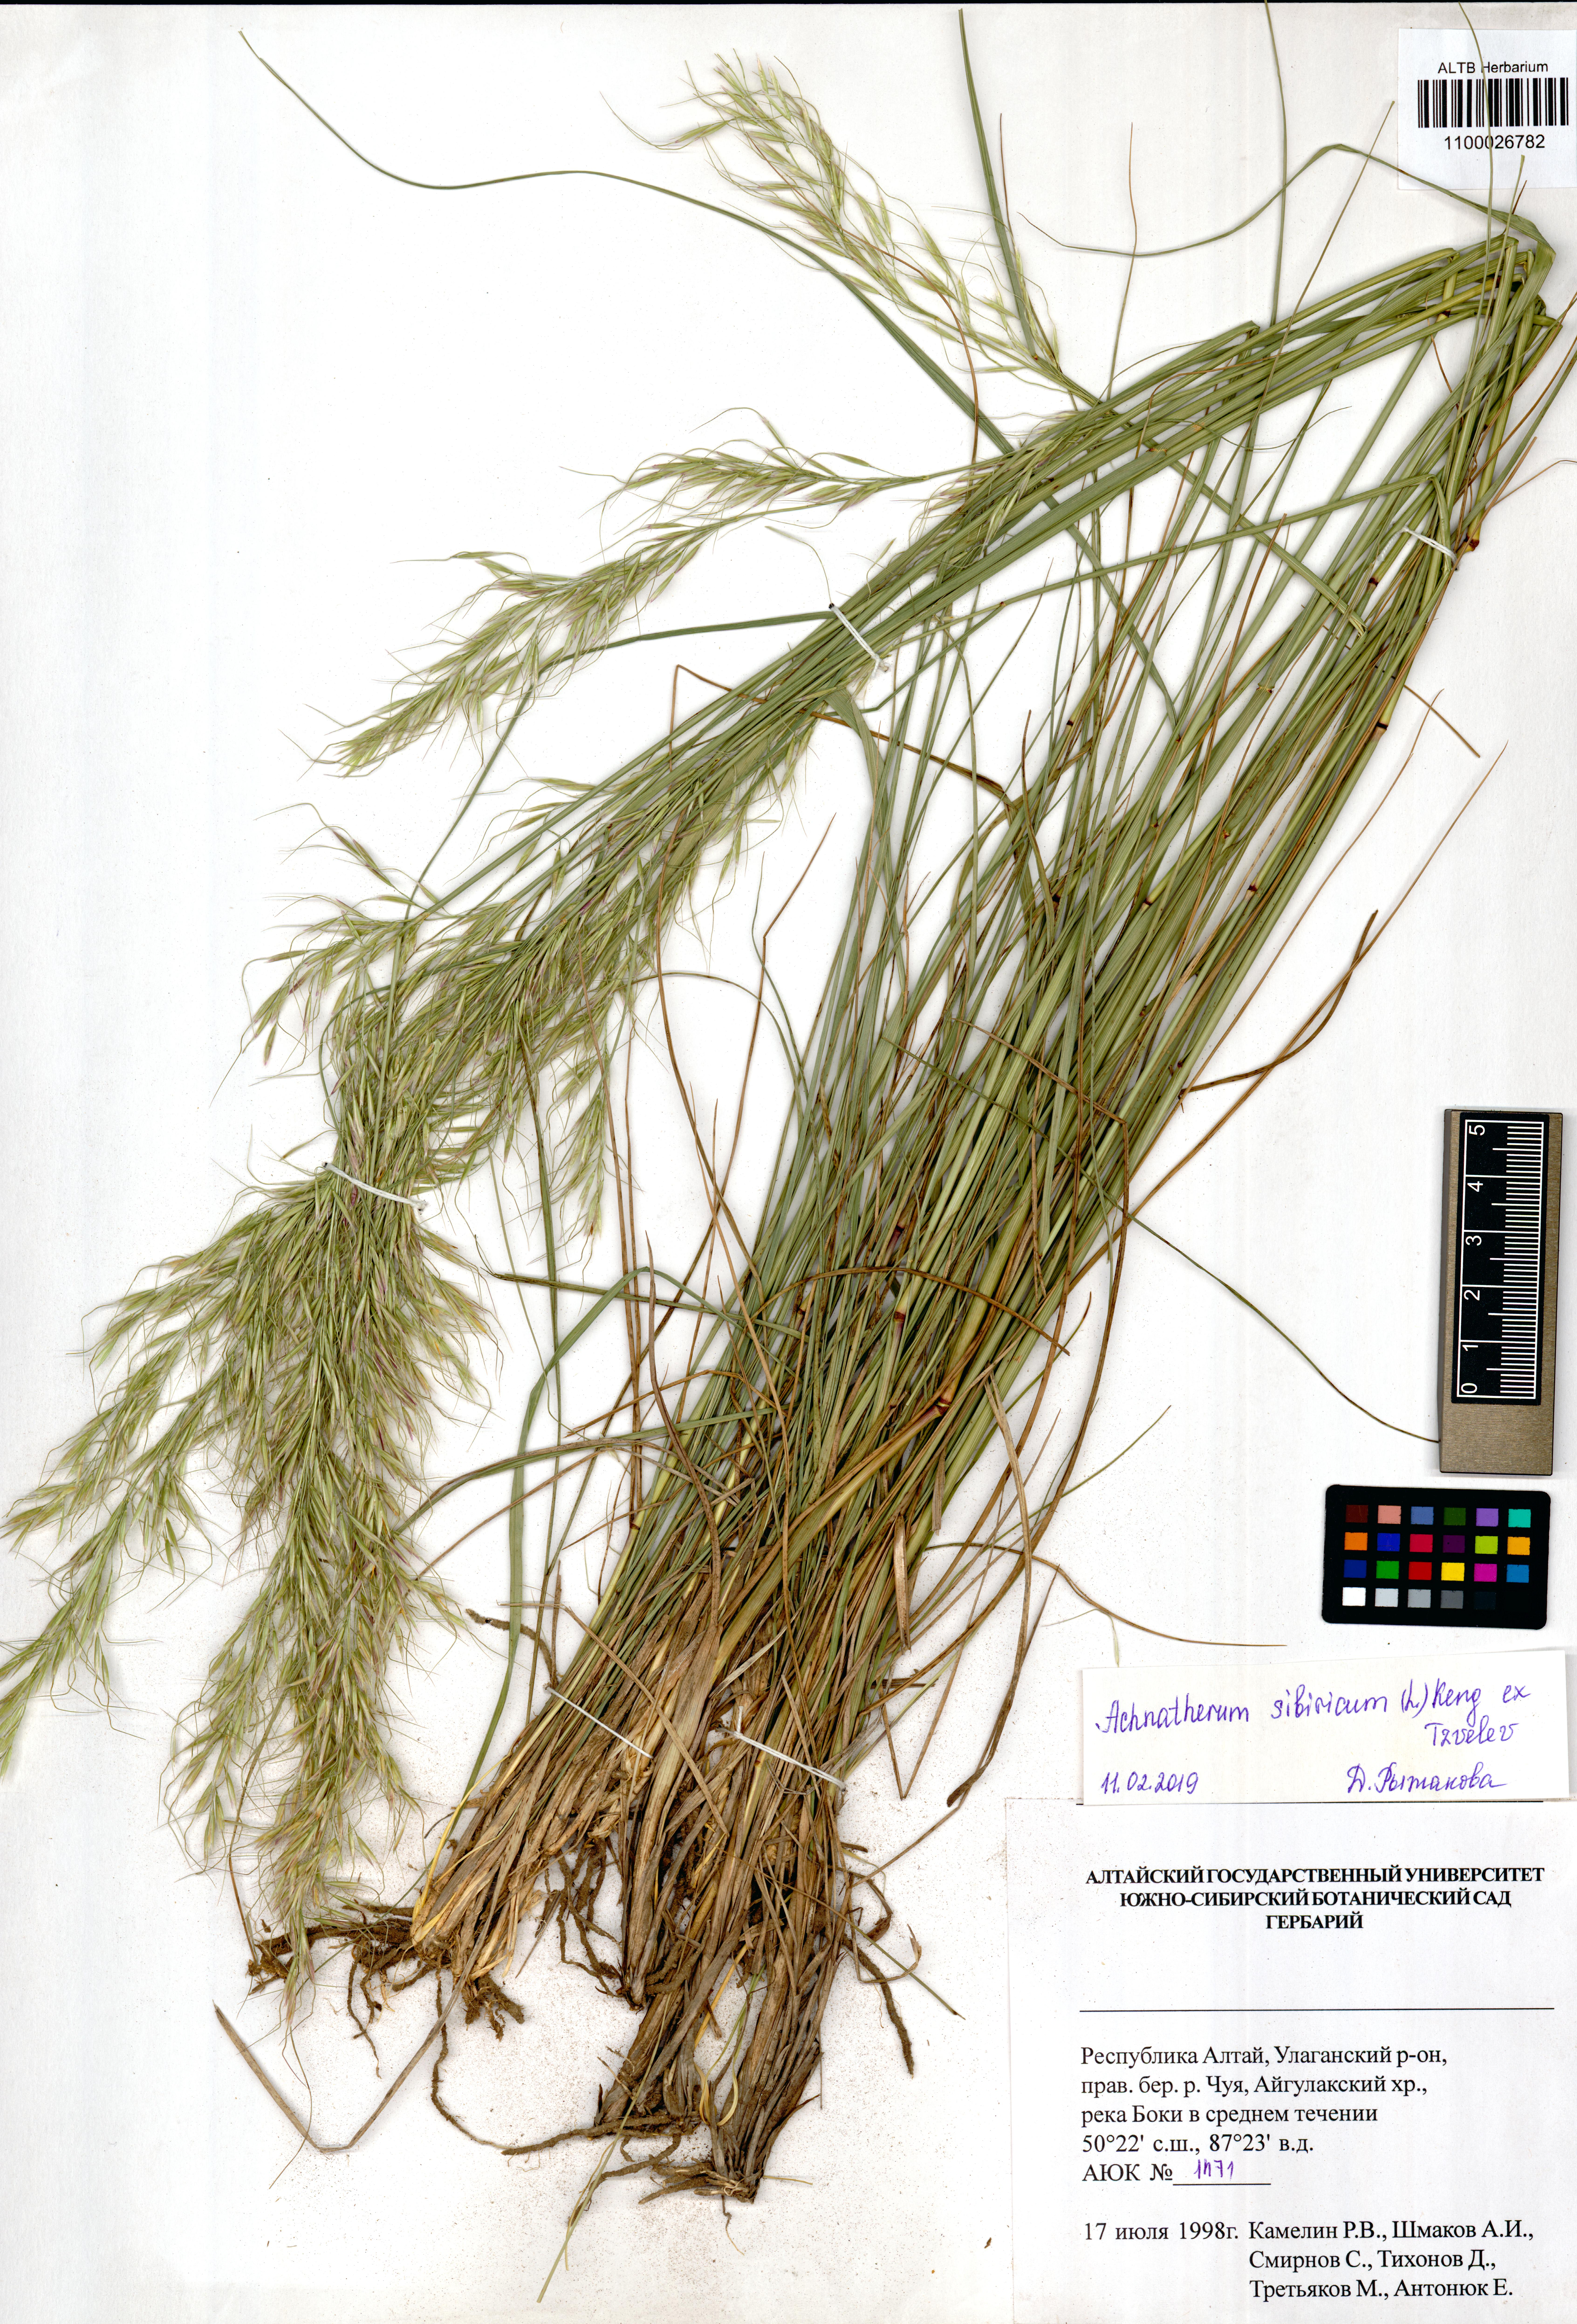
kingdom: Plantae
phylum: Tracheophyta
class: Liliopsida
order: Poales
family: Poaceae
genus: Achnatherum
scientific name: Achnatherum sibiricum
